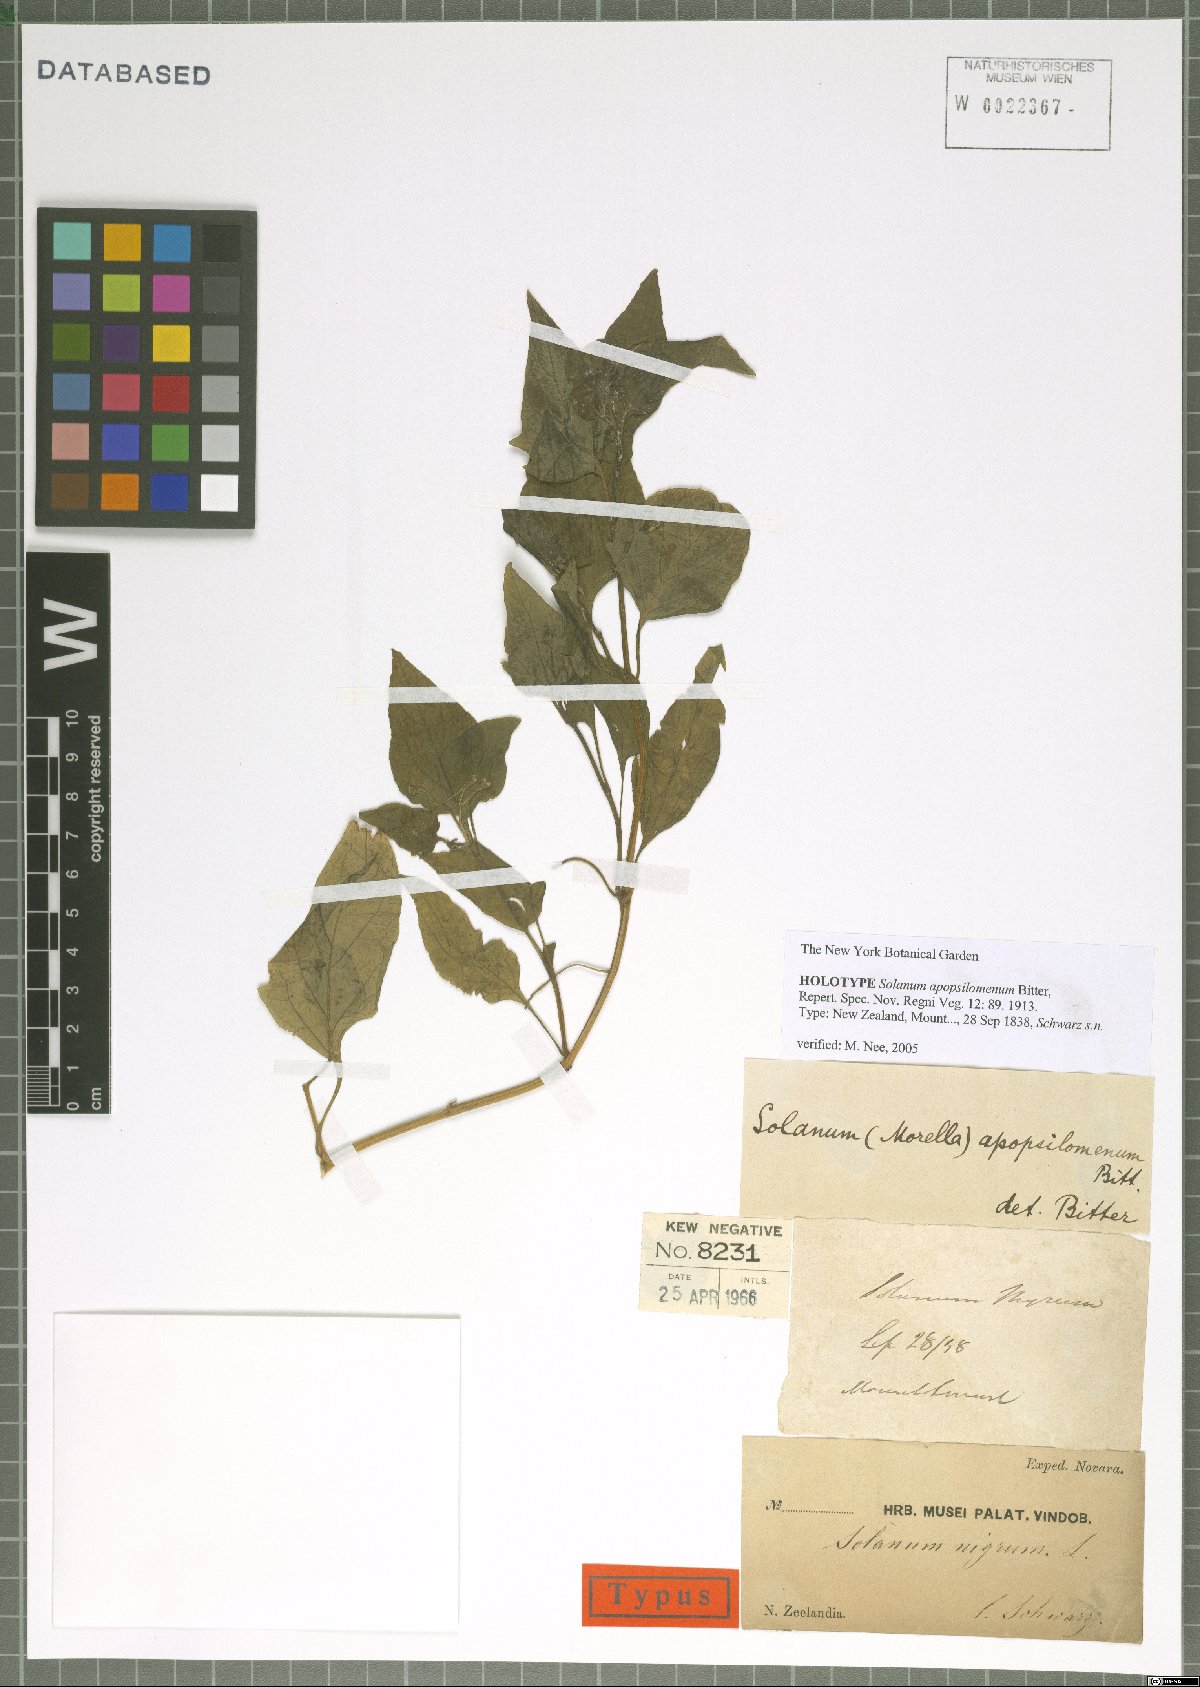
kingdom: Plantae
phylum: Tracheophyta
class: Magnoliopsida
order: Solanales
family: Solanaceae
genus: Solanum
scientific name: Solanum opacum
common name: Green-berry nightshade
